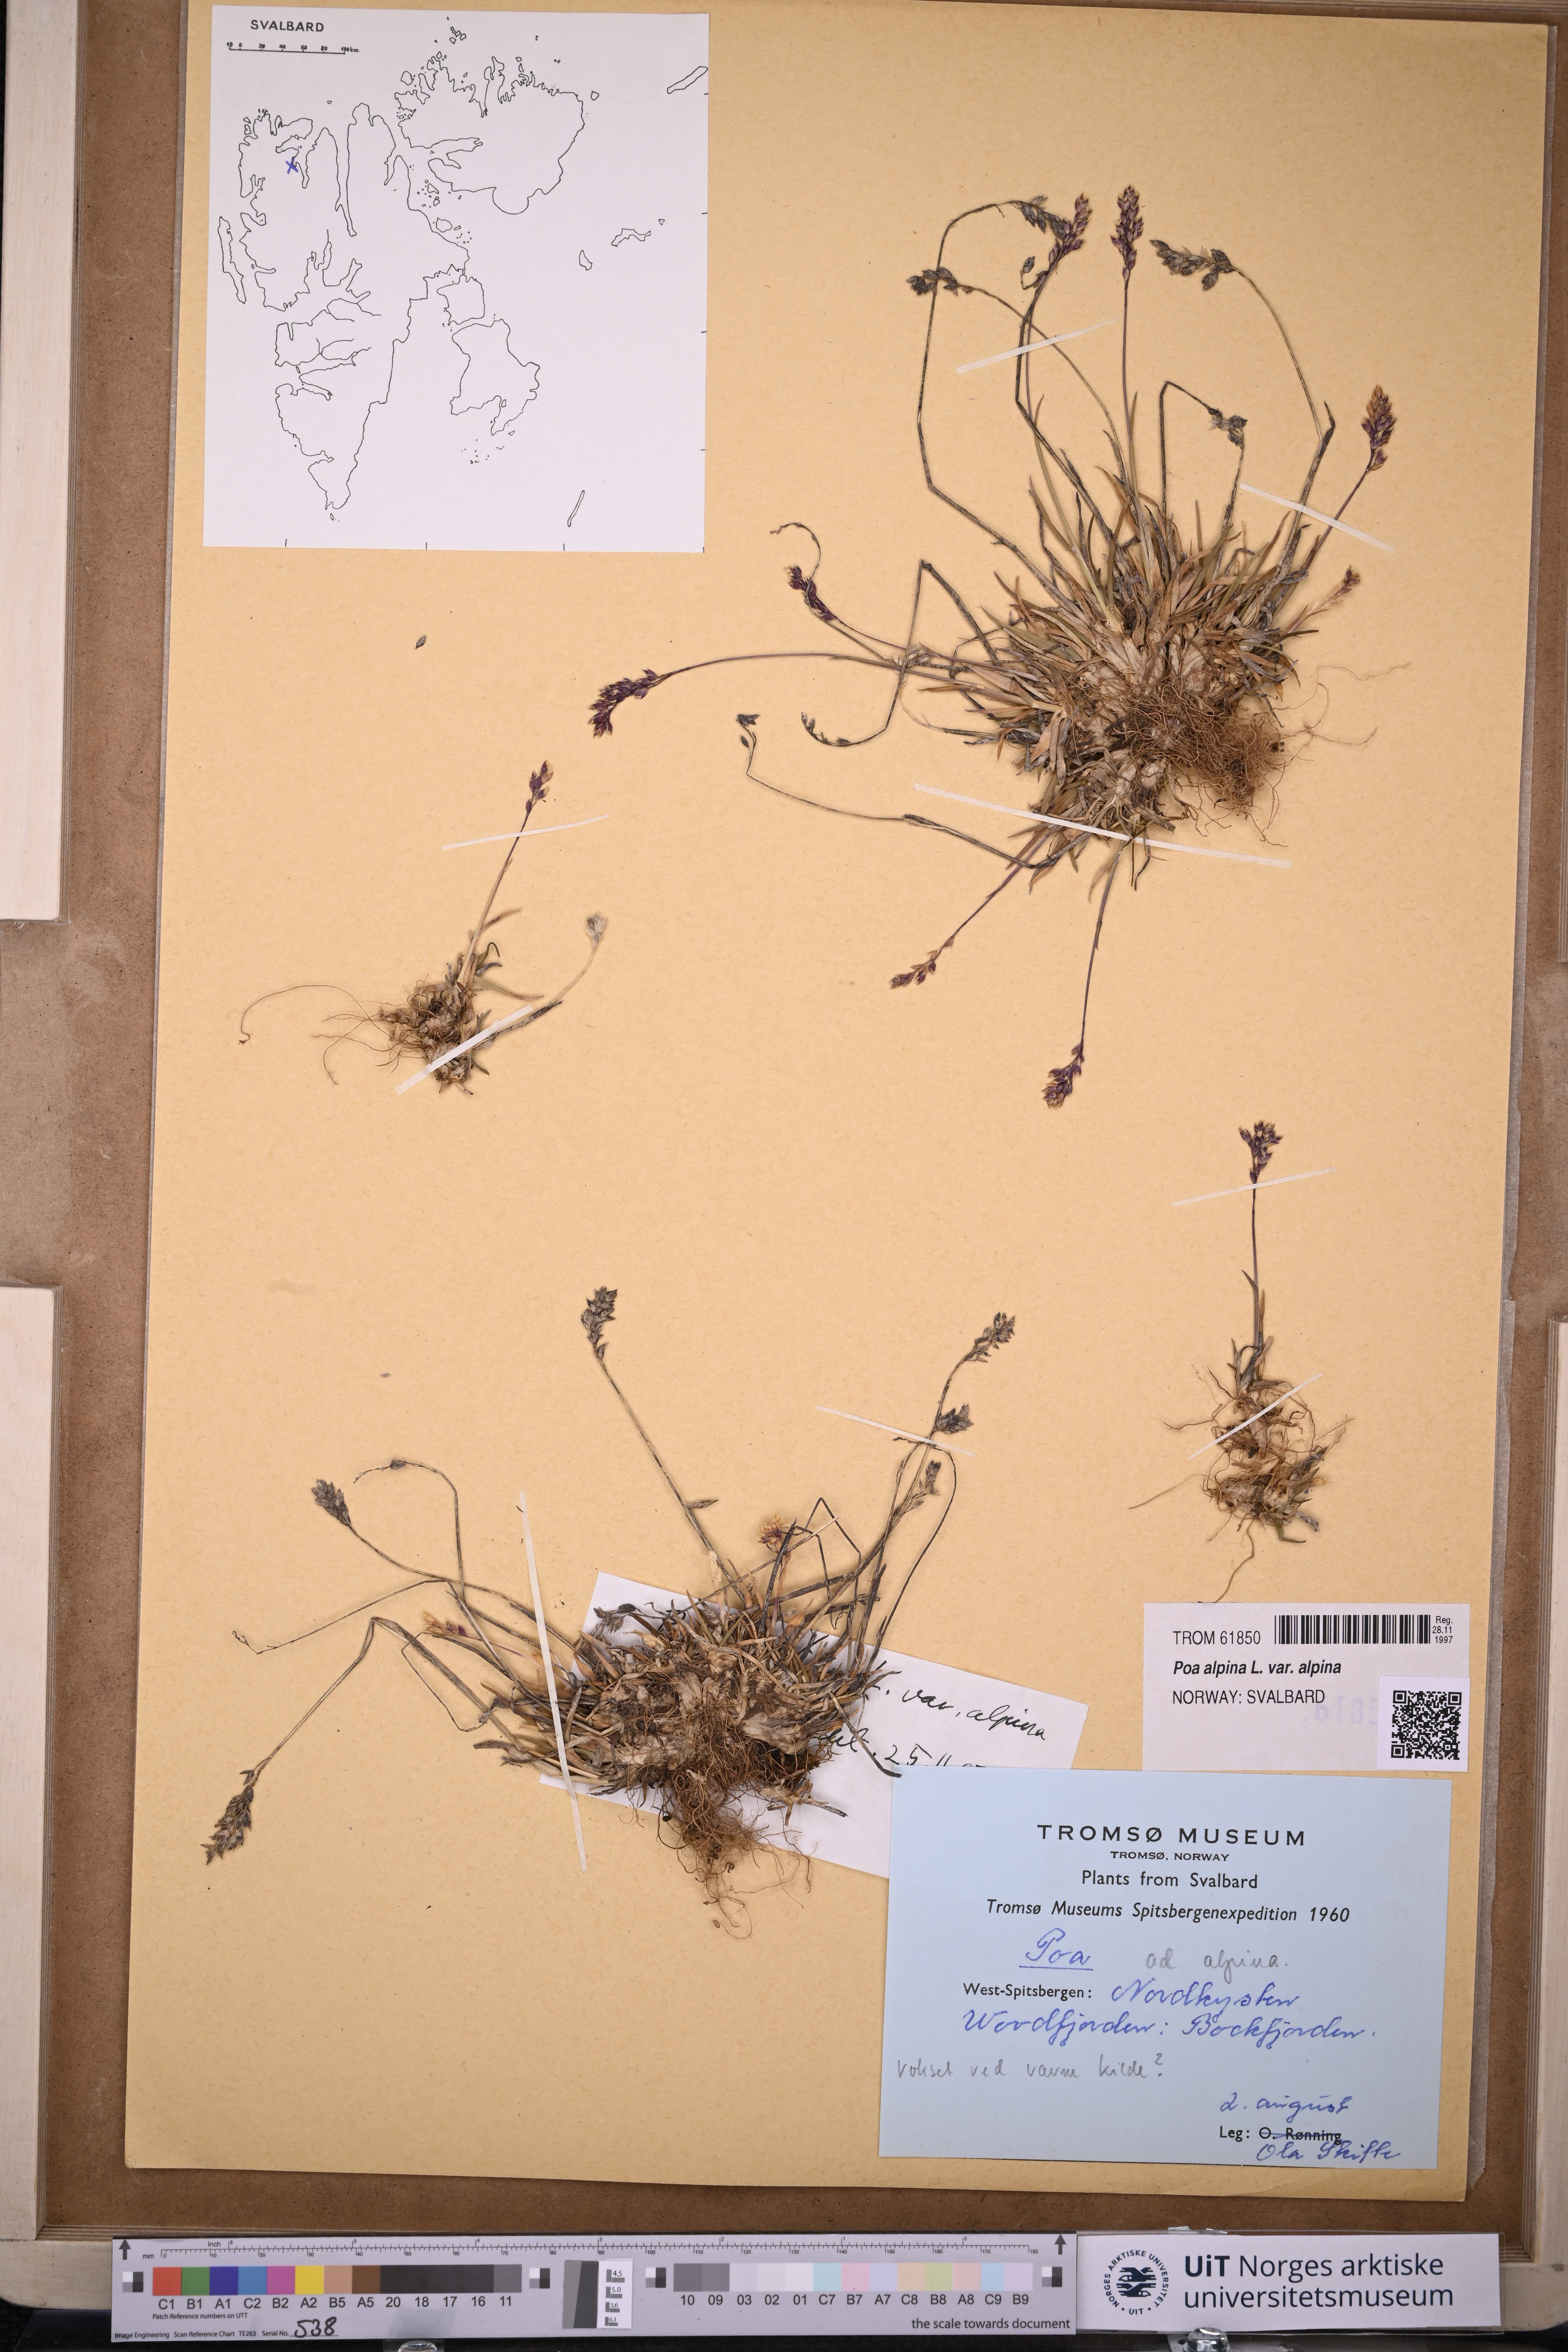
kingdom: Plantae
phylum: Tracheophyta
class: Liliopsida
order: Poales
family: Poaceae
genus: Poa
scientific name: Poa alpina
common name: Alpine bluegrass
